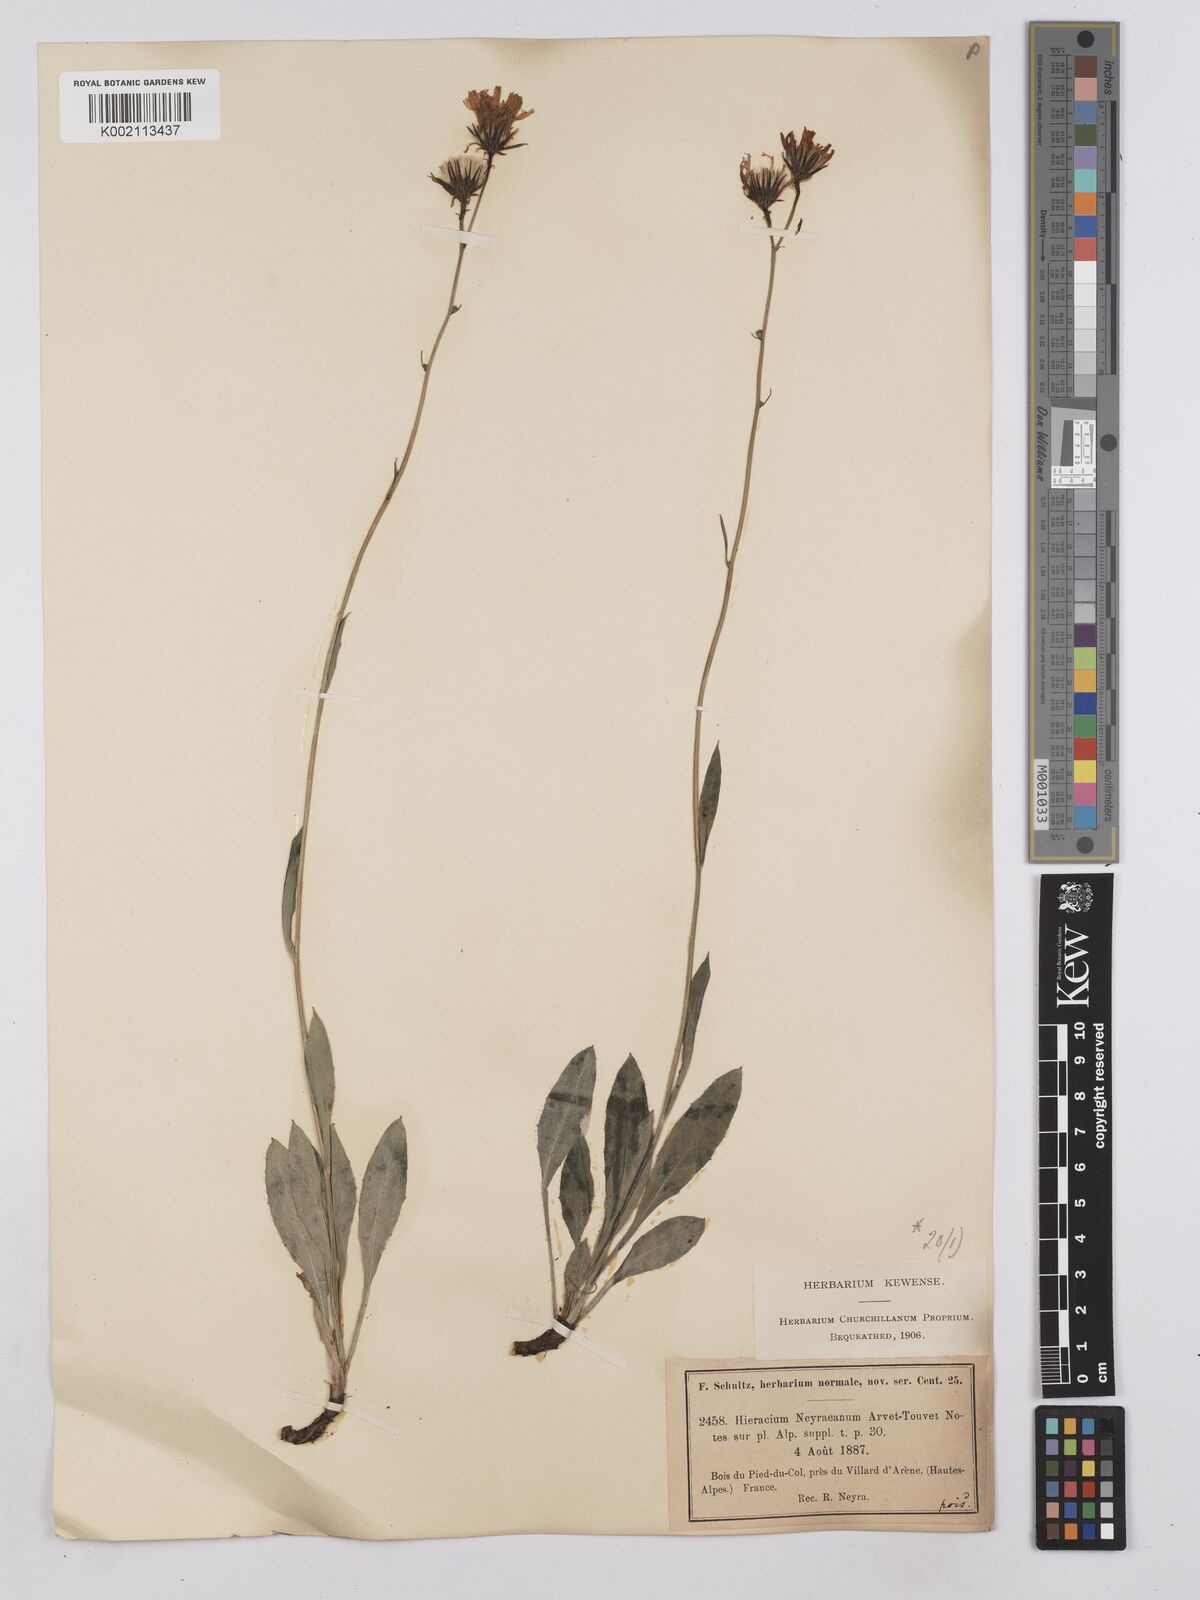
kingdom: Plantae
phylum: Tracheophyta
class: Magnoliopsida
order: Asterales
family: Asteraceae
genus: Hieracium
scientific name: Hieracium neyranum
